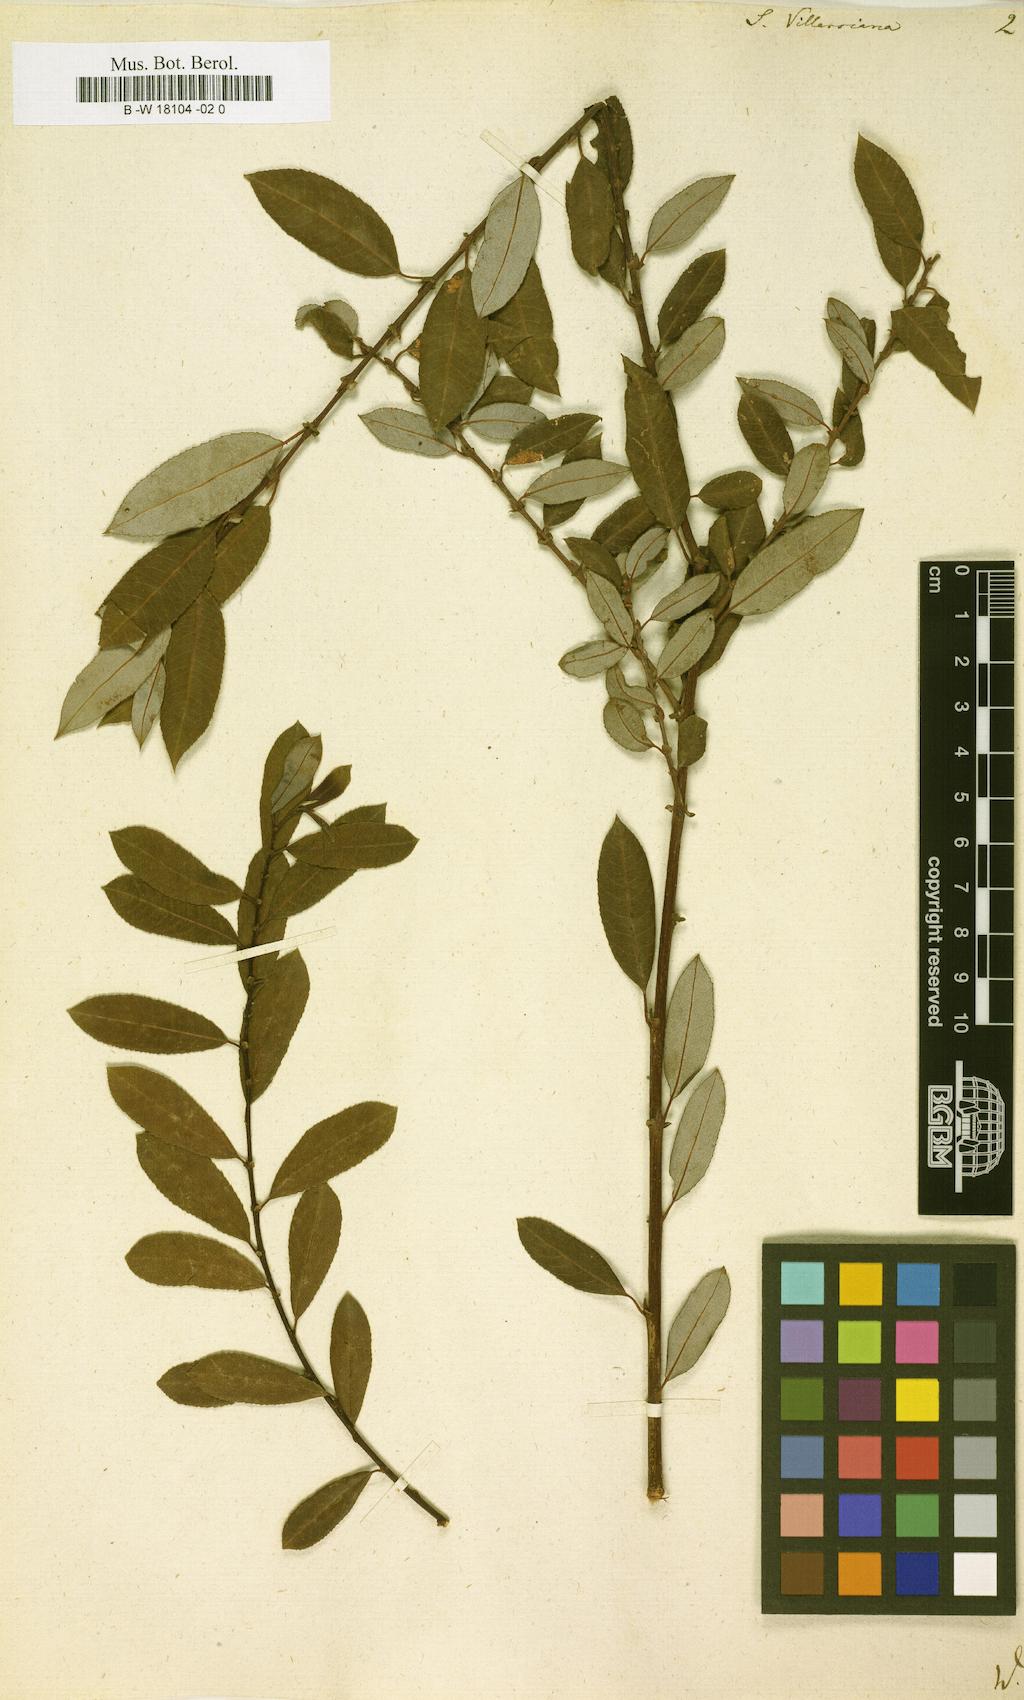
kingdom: Plantae
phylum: Tracheophyta
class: Magnoliopsida
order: Malpighiales
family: Salicaceae
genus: Salix
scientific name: Salix triandra
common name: Almond willow
